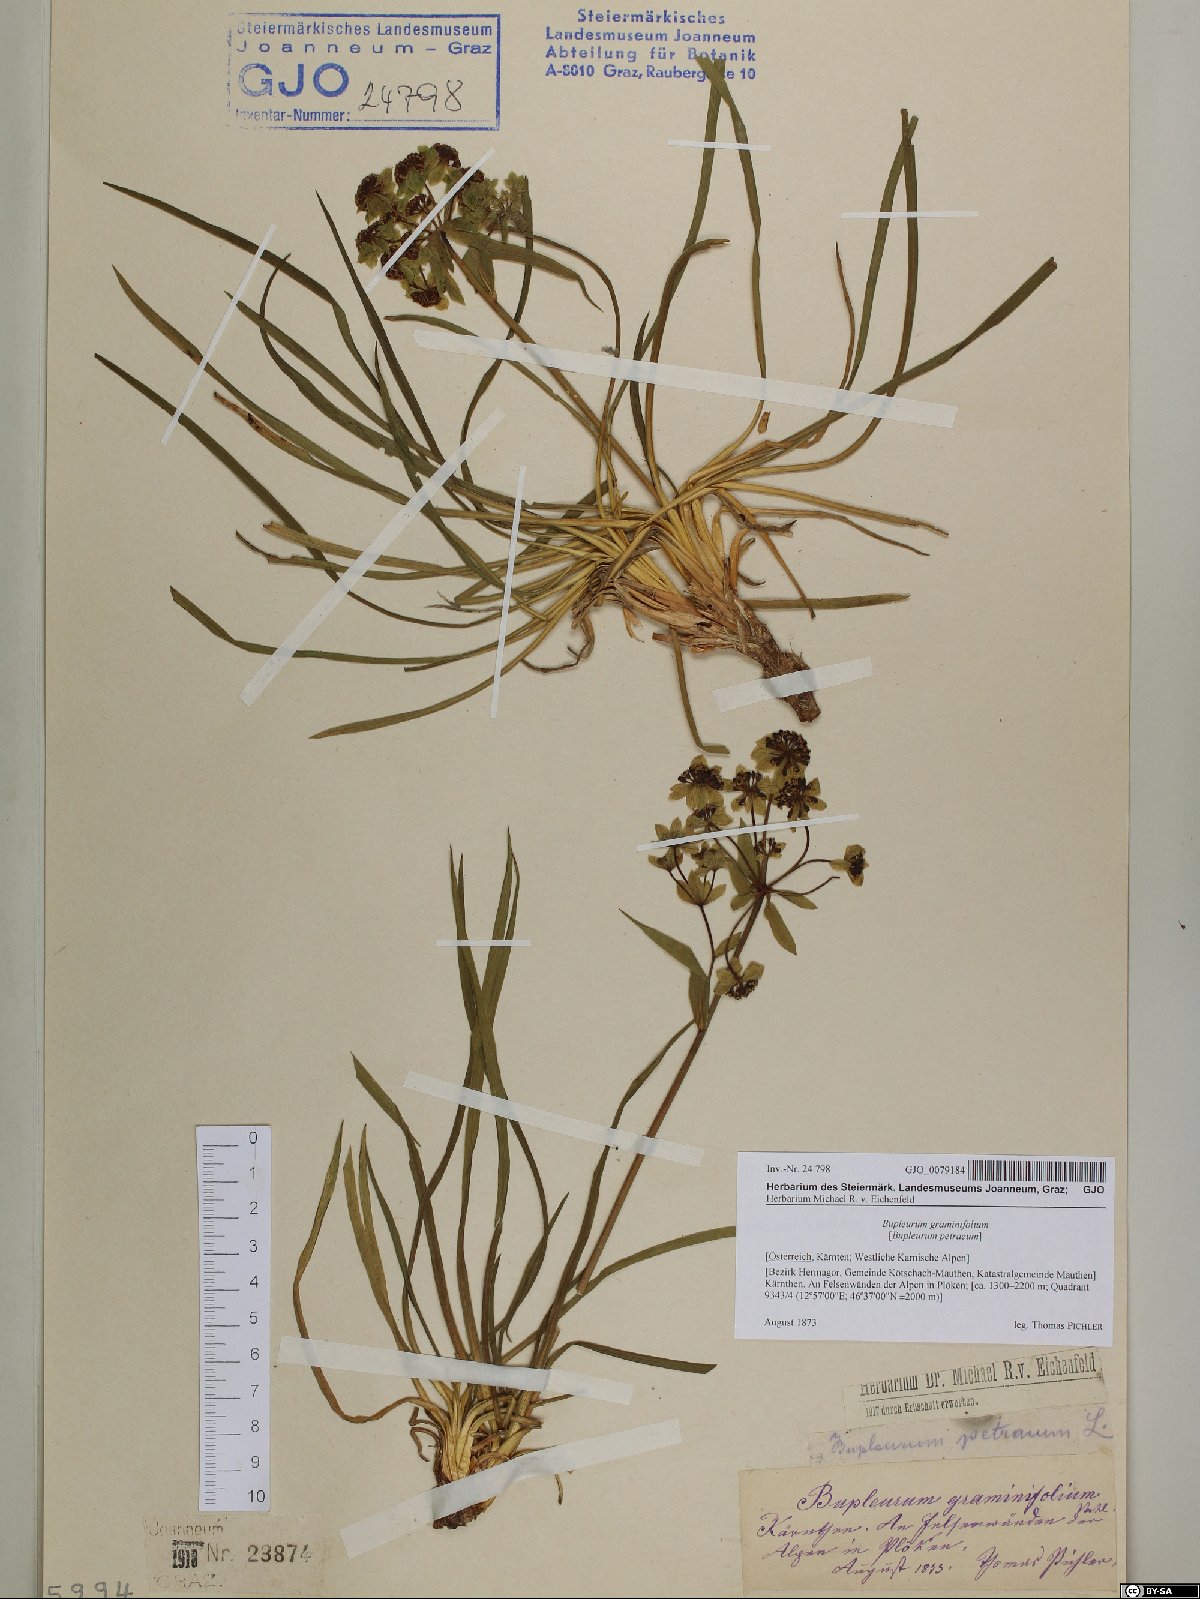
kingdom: Plantae
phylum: Tracheophyta
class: Magnoliopsida
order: Apiales
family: Apiaceae
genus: Bupleurum
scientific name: Bupleurum petraeum
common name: Rock hare's-ear
